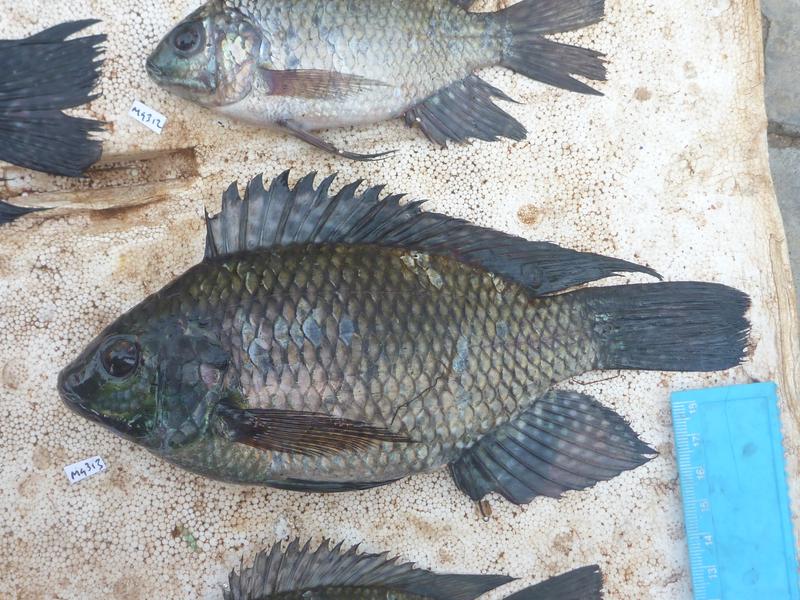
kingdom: Animalia
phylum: Chordata
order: Perciformes
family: Cichlidae
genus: Oreochromis
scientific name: Oreochromis leucostictus
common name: Blue spotted tilapia
